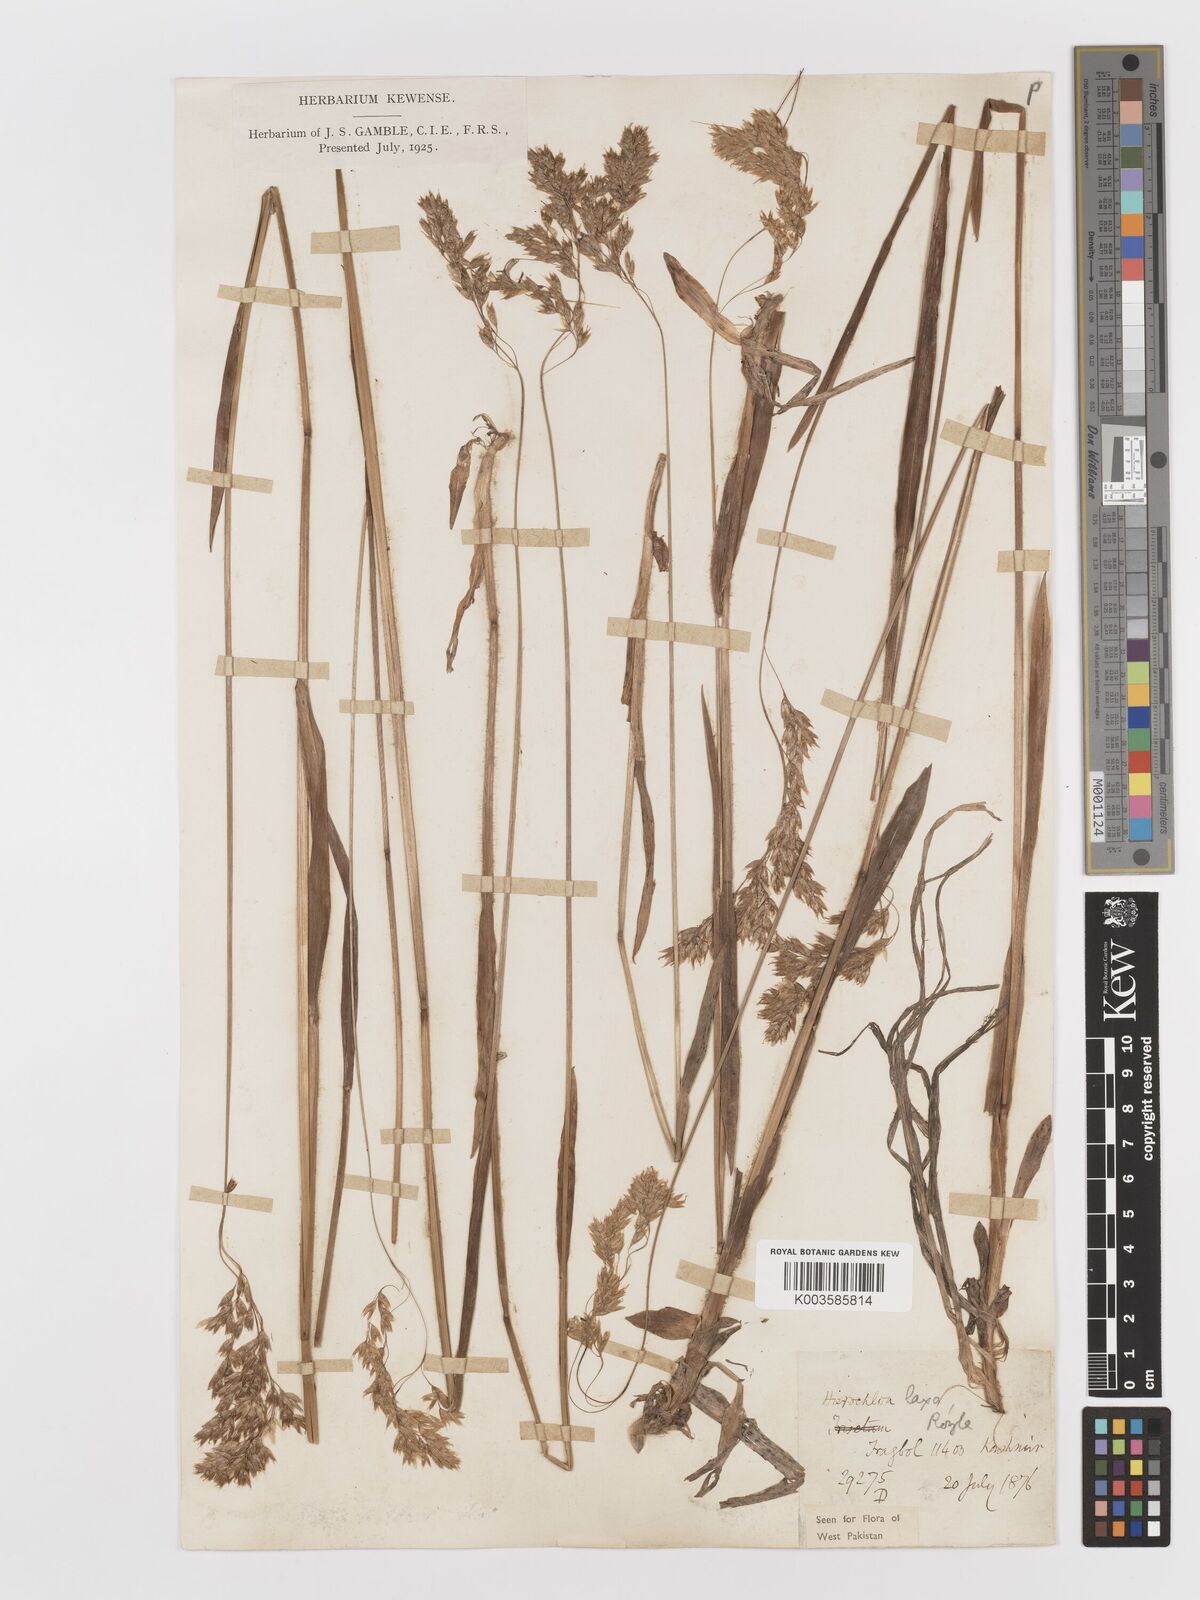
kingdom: Plantae
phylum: Tracheophyta
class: Liliopsida
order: Poales
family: Poaceae
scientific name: Poaceae
